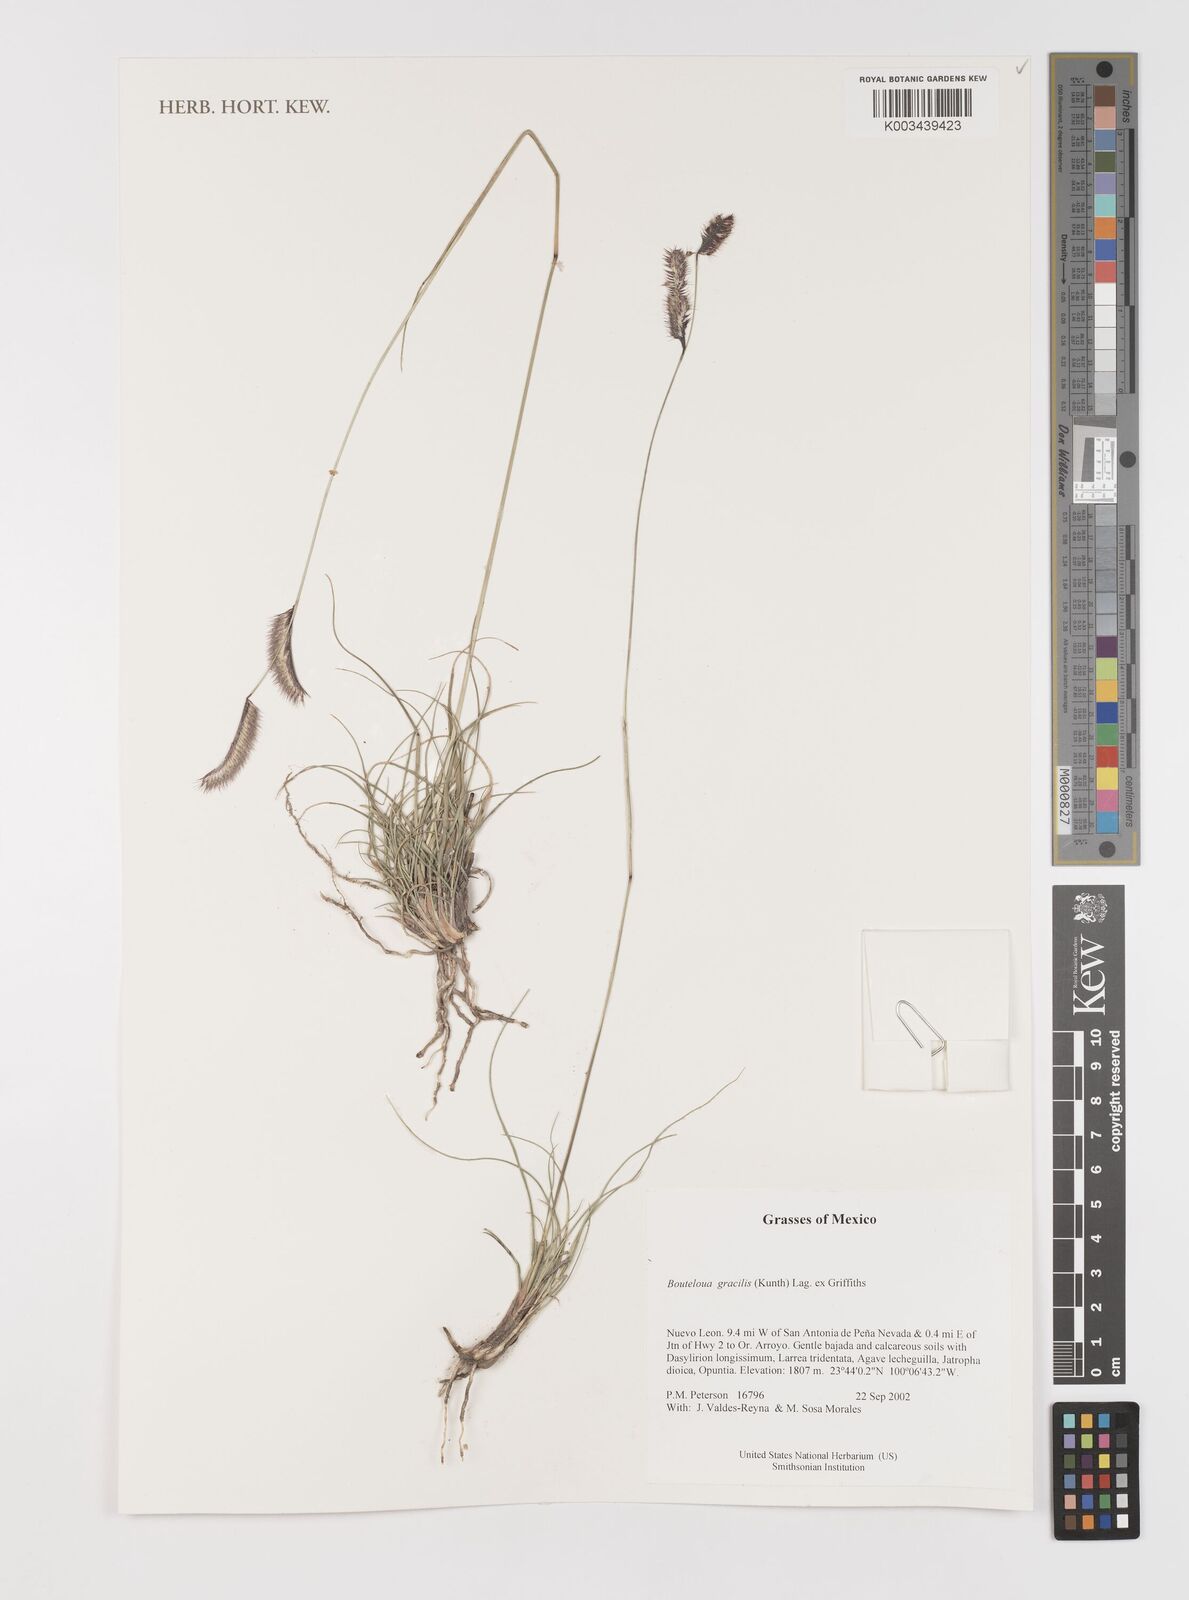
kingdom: Plantae
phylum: Tracheophyta
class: Liliopsida
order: Poales
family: Poaceae
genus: Bouteloua
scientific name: Bouteloua aristidoides
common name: Needle grama
